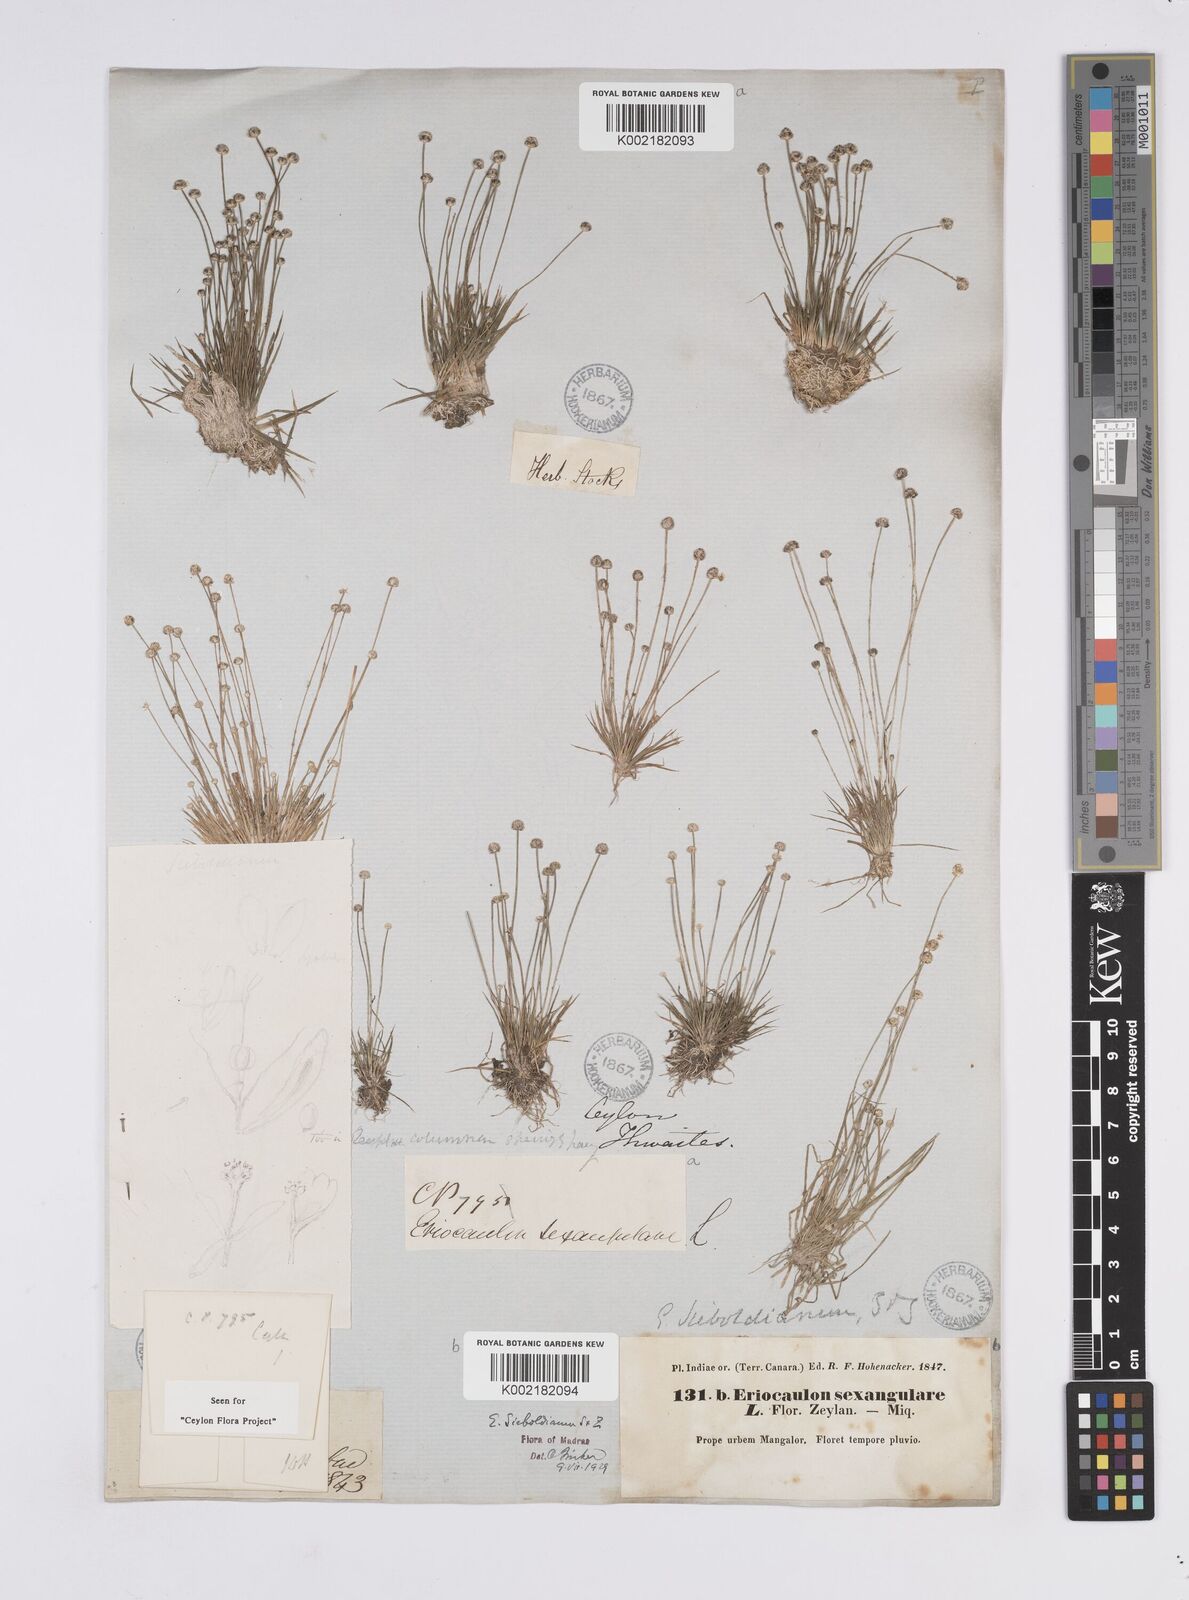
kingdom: Plantae
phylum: Tracheophyta
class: Liliopsida
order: Poales
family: Eriocaulaceae
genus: Eriocaulon
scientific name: Eriocaulon cinereum
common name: Ashy pipewort
